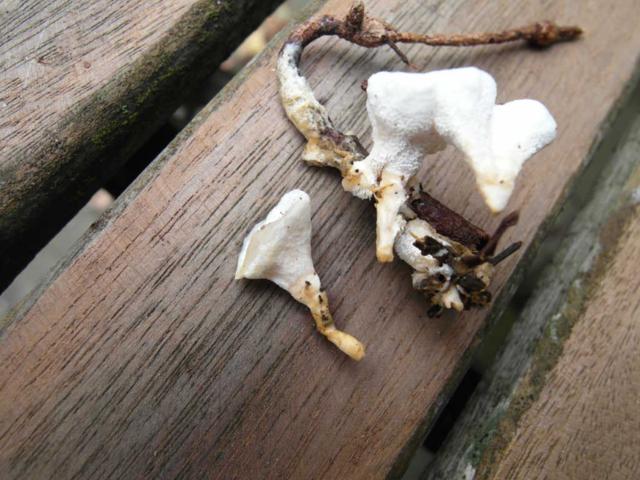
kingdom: Fungi
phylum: Basidiomycota
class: Agaricomycetes
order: Cantharellales
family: Hydnaceae
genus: Sistotrema
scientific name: Sistotrema confluens
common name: stilket kroneskorpe
